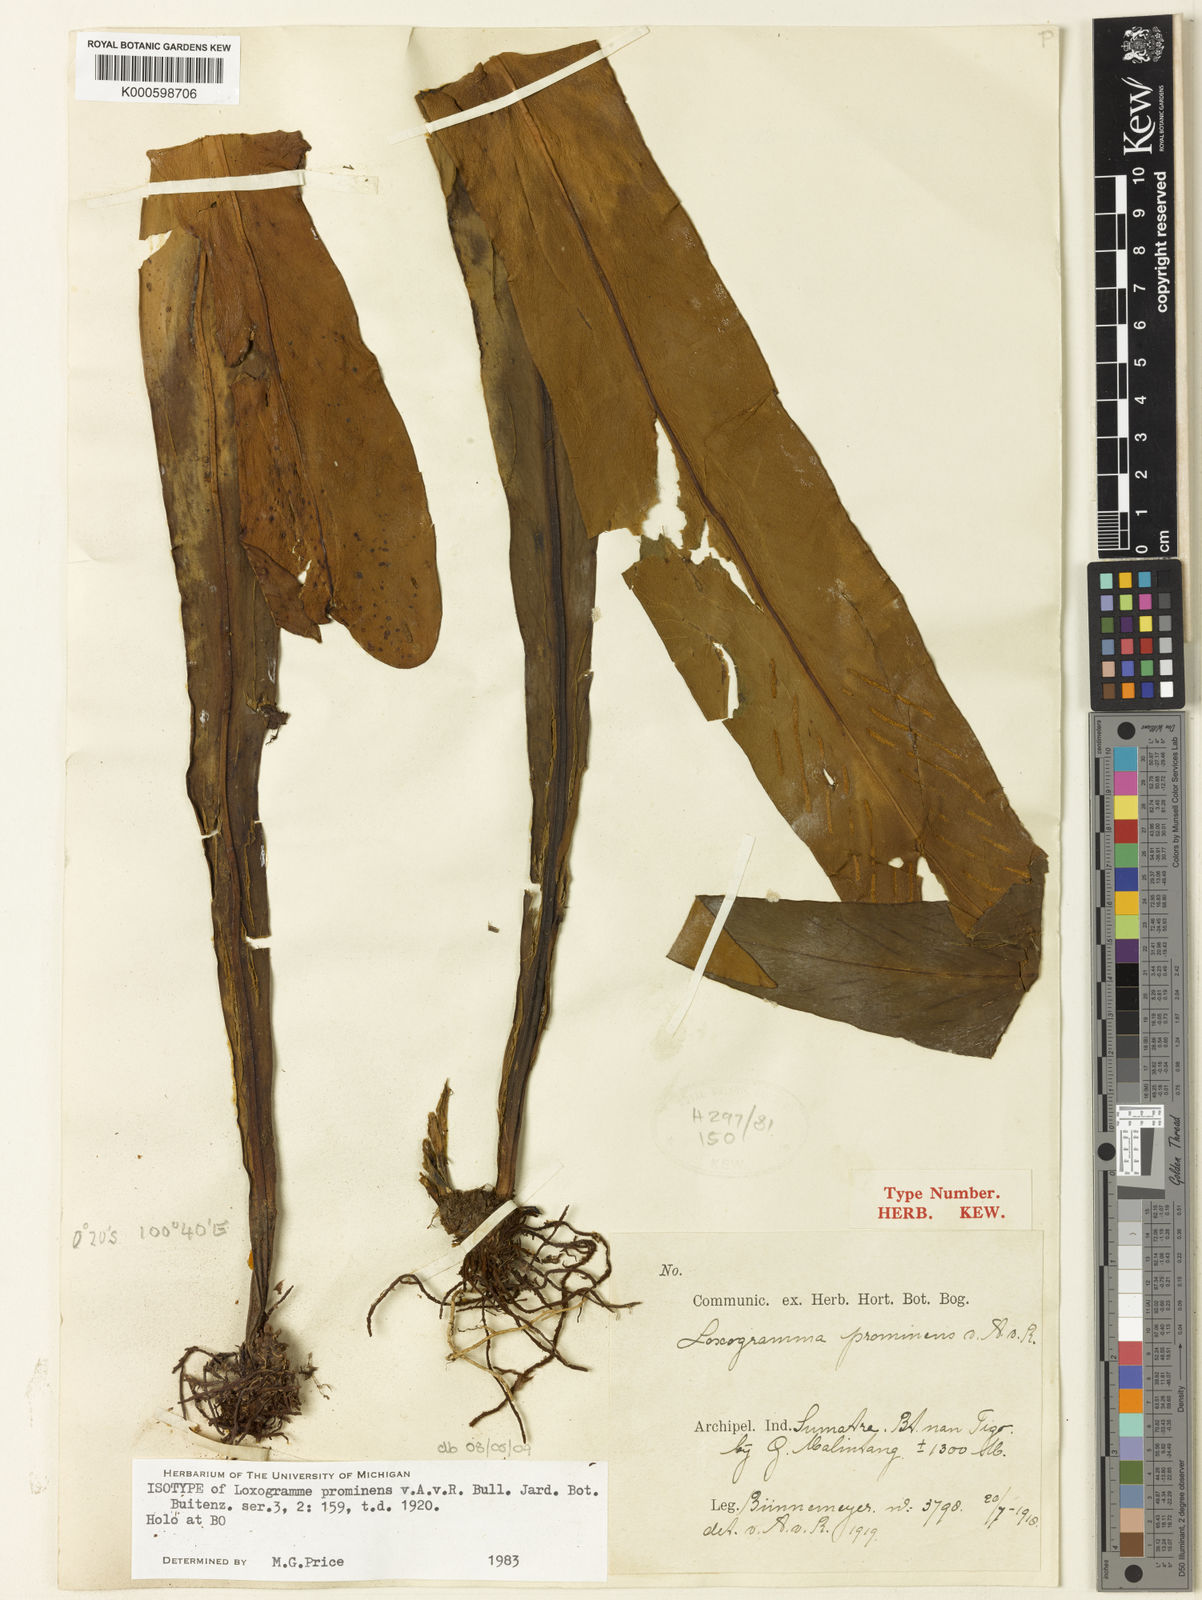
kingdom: Plantae
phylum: Tracheophyta
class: Polypodiopsida
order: Polypodiales
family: Polypodiaceae
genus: Loxogramme
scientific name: Loxogramme prominens
